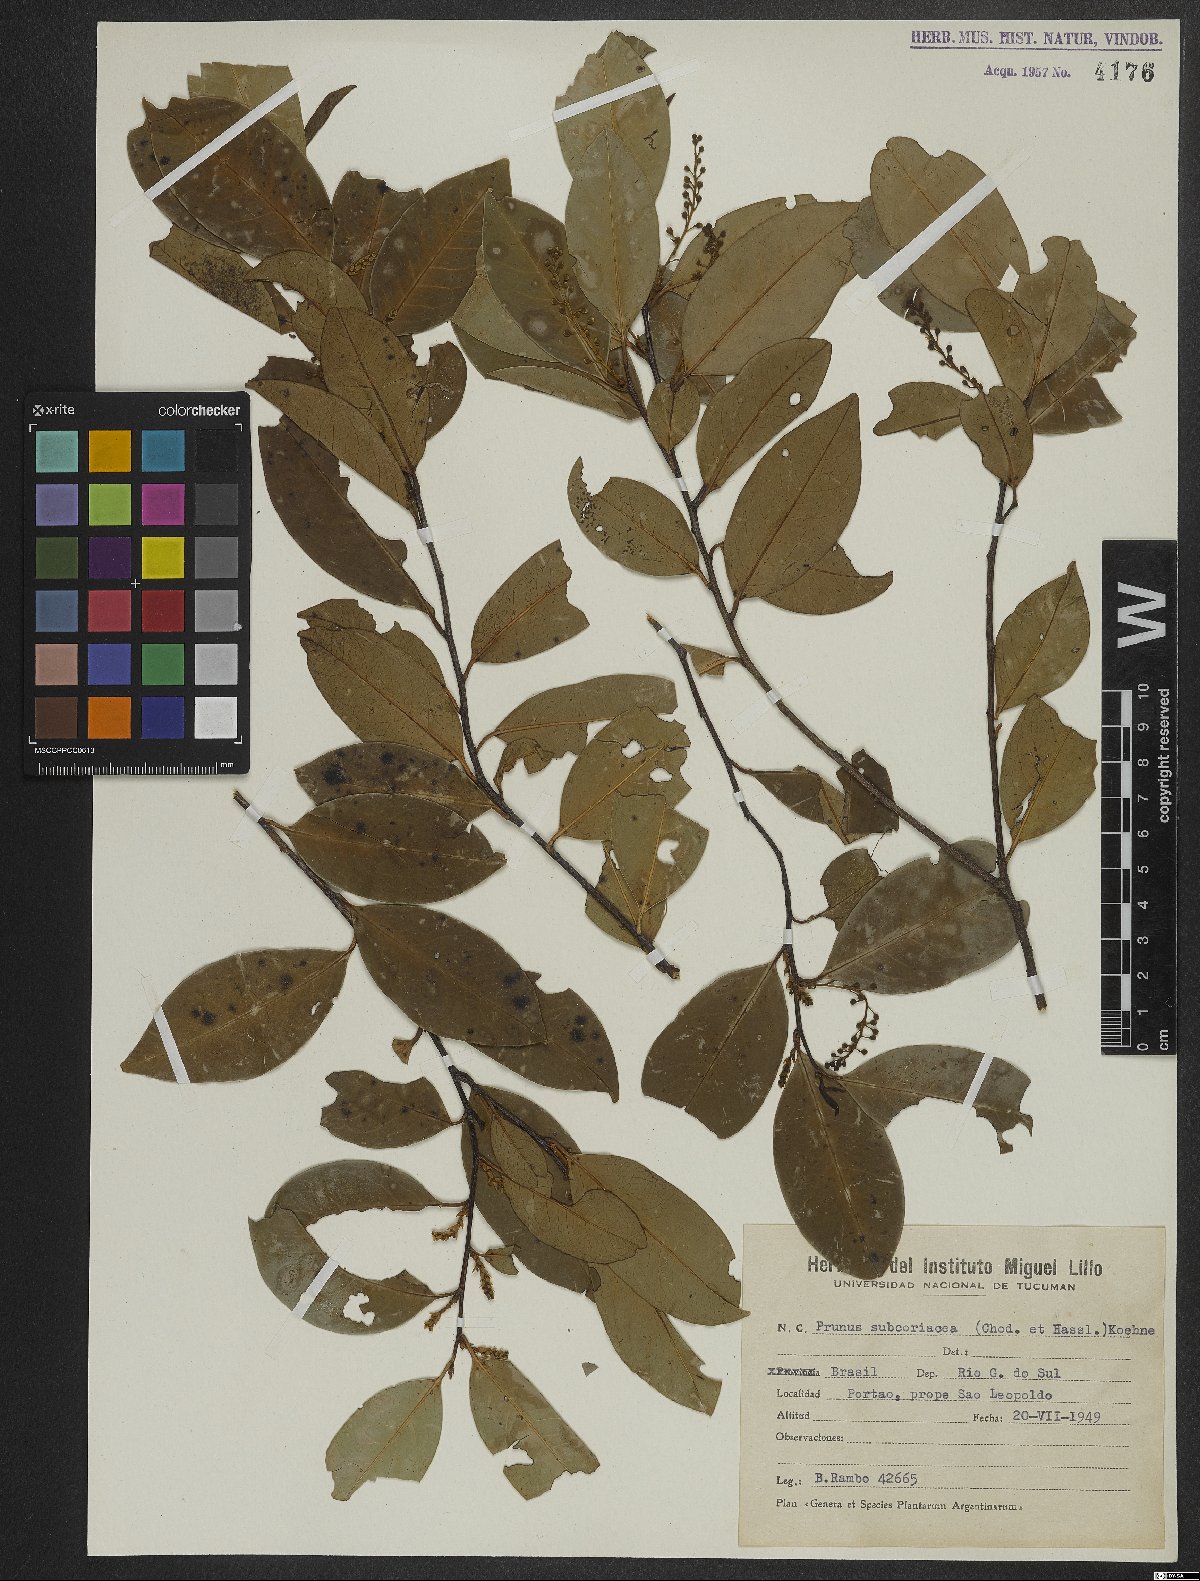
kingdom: Plantae
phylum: Tracheophyta
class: Magnoliopsida
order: Rosales
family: Rosaceae
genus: Prunus
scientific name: Prunus subcoriacea
